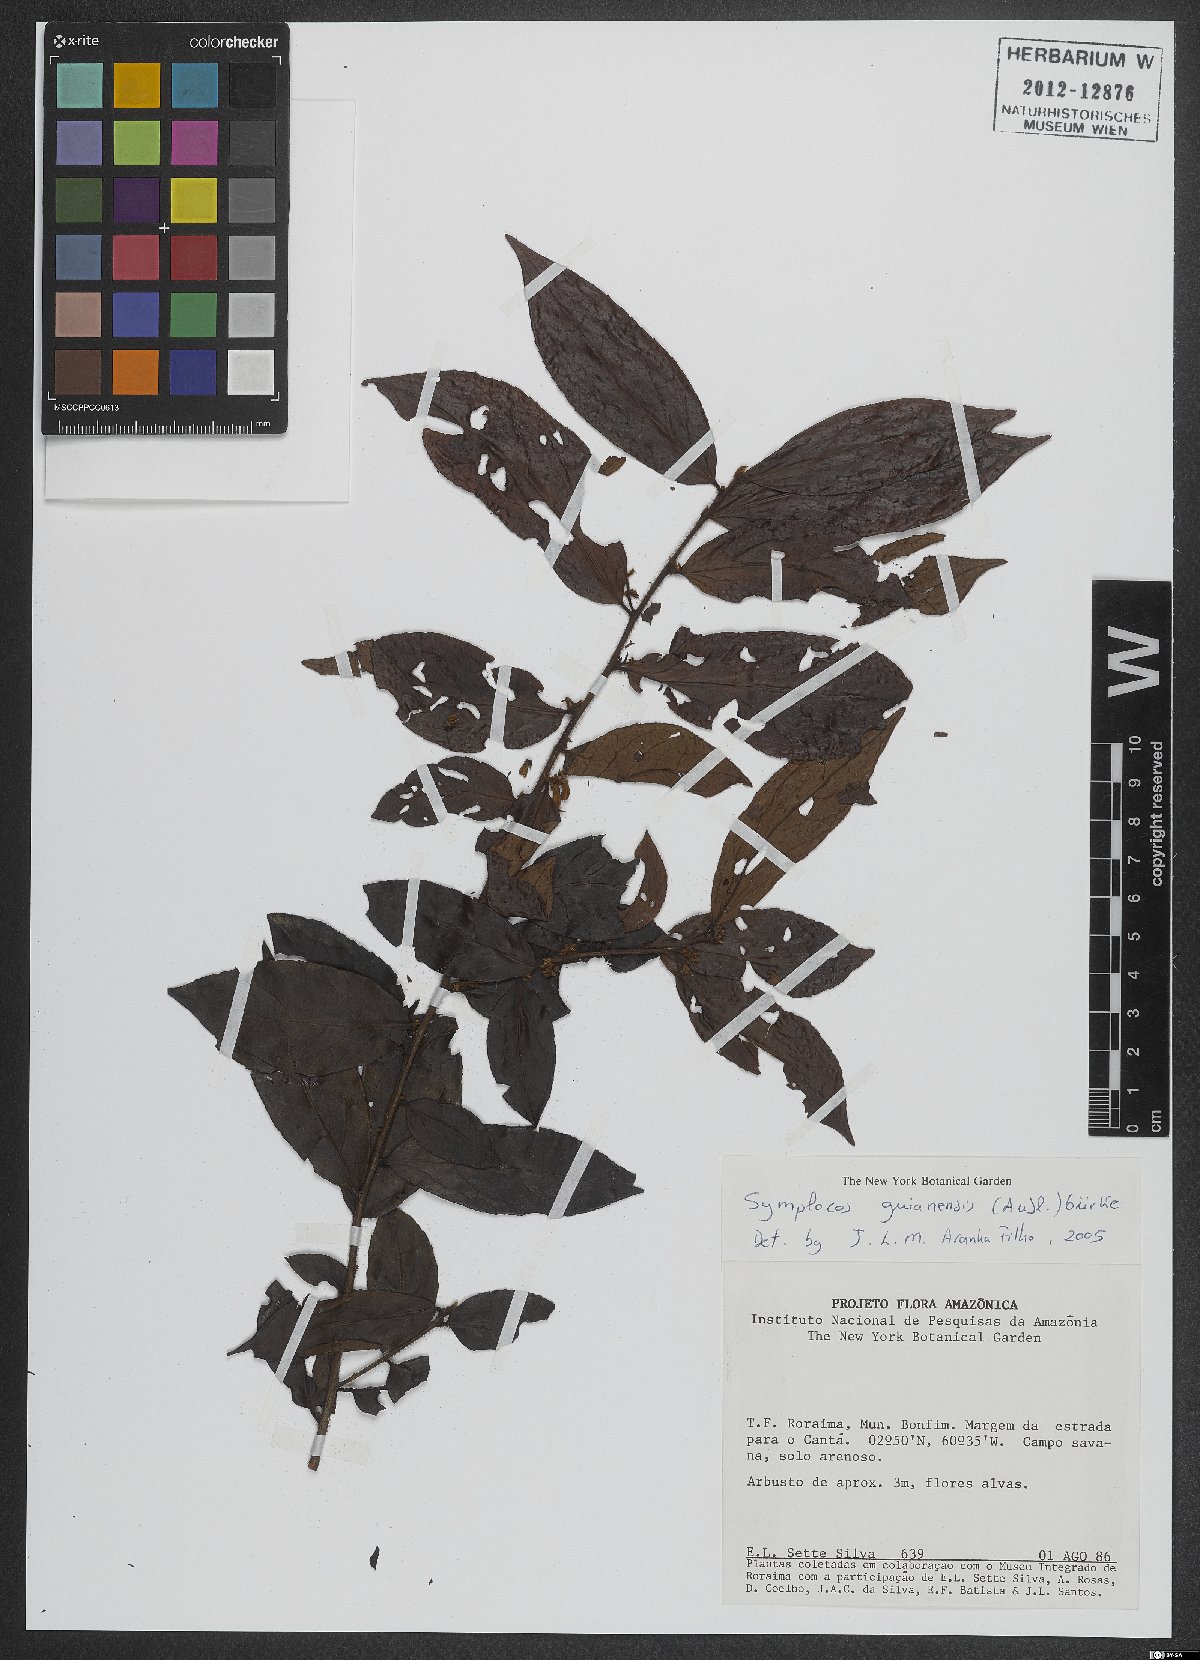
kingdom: Plantae
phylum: Tracheophyta
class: Magnoliopsida
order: Ericales
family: Symplocaceae
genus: Symplocos
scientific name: Symplocos guianensis
